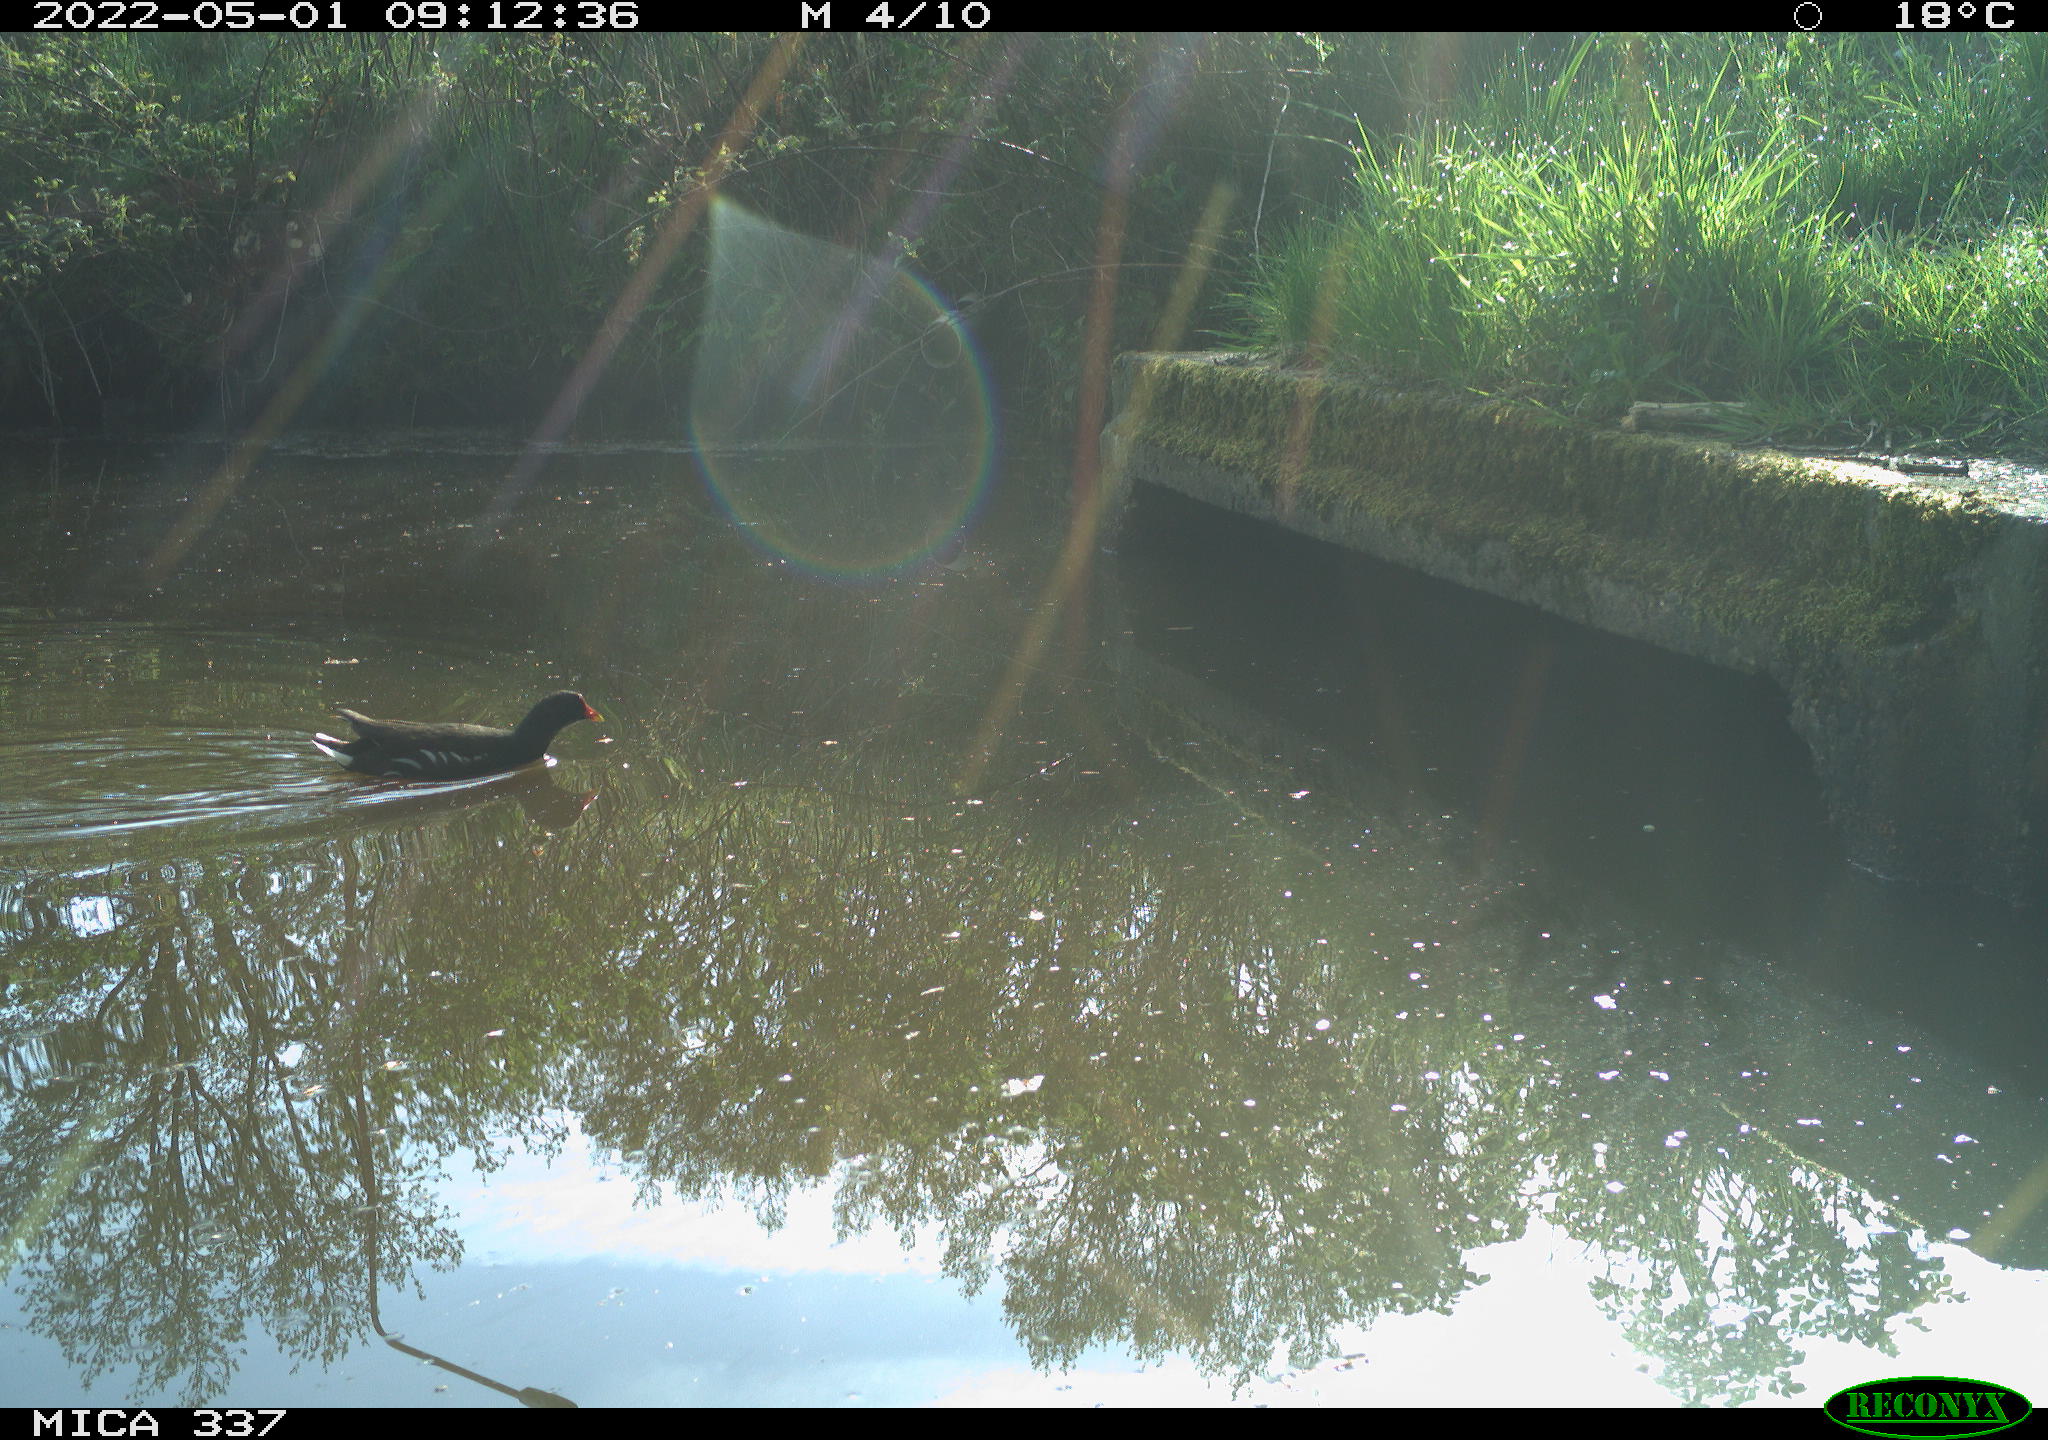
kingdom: Animalia
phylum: Chordata
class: Aves
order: Gruiformes
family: Rallidae
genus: Gallinula
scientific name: Gallinula chloropus
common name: Common moorhen
